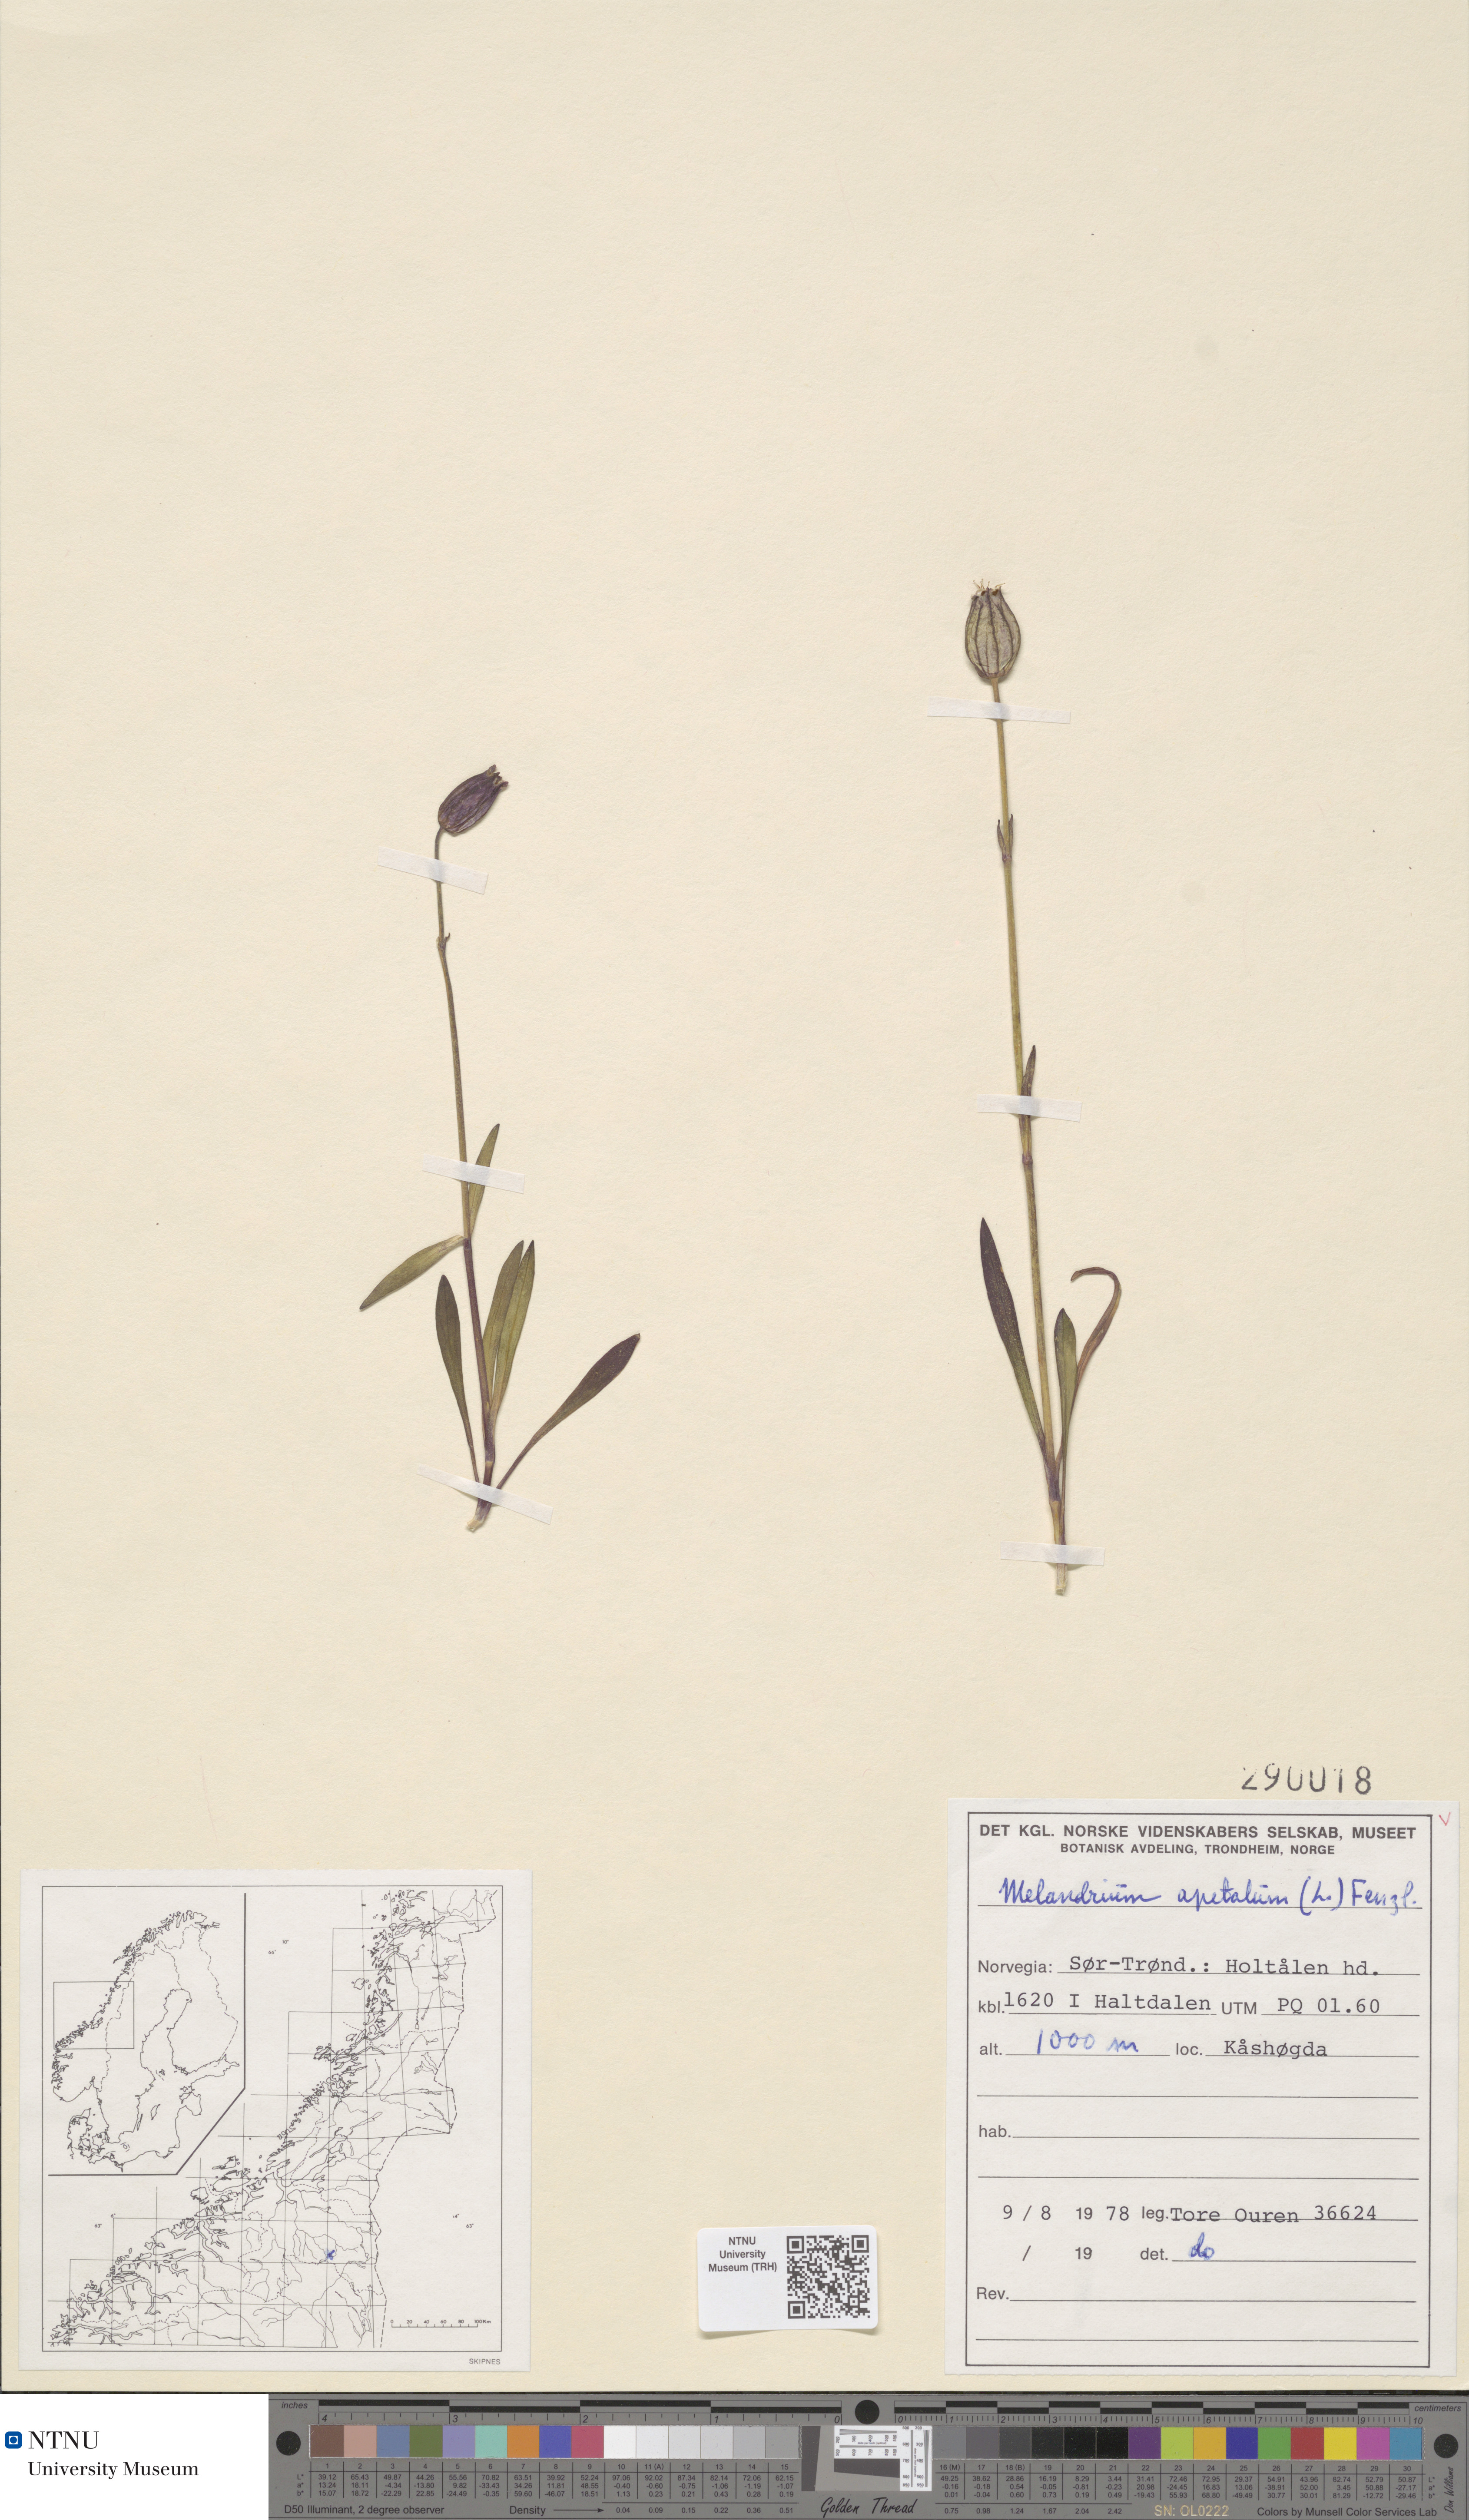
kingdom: Plantae
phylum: Tracheophyta
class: Magnoliopsida
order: Caryophyllales
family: Caryophyllaceae
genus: Silene
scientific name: Silene wahlbergella
